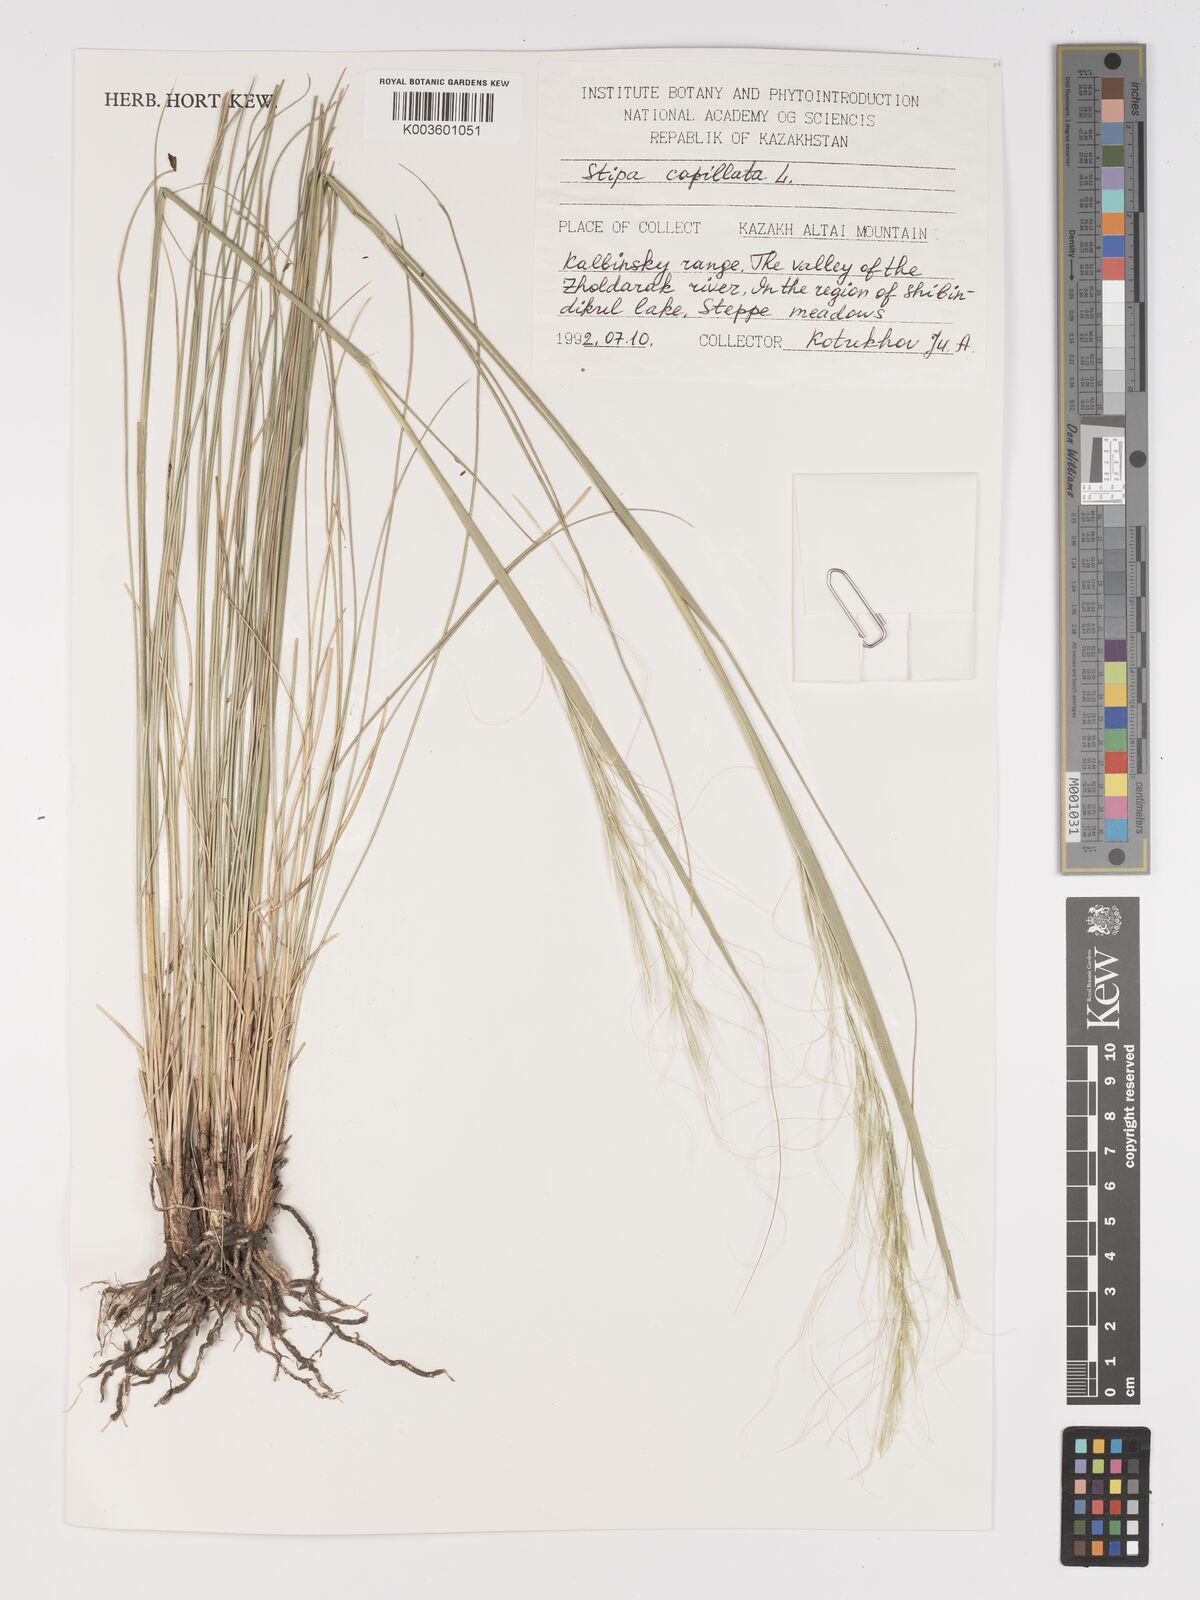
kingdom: Plantae
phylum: Tracheophyta
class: Liliopsida
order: Poales
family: Poaceae
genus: Stipa
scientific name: Stipa capillata
